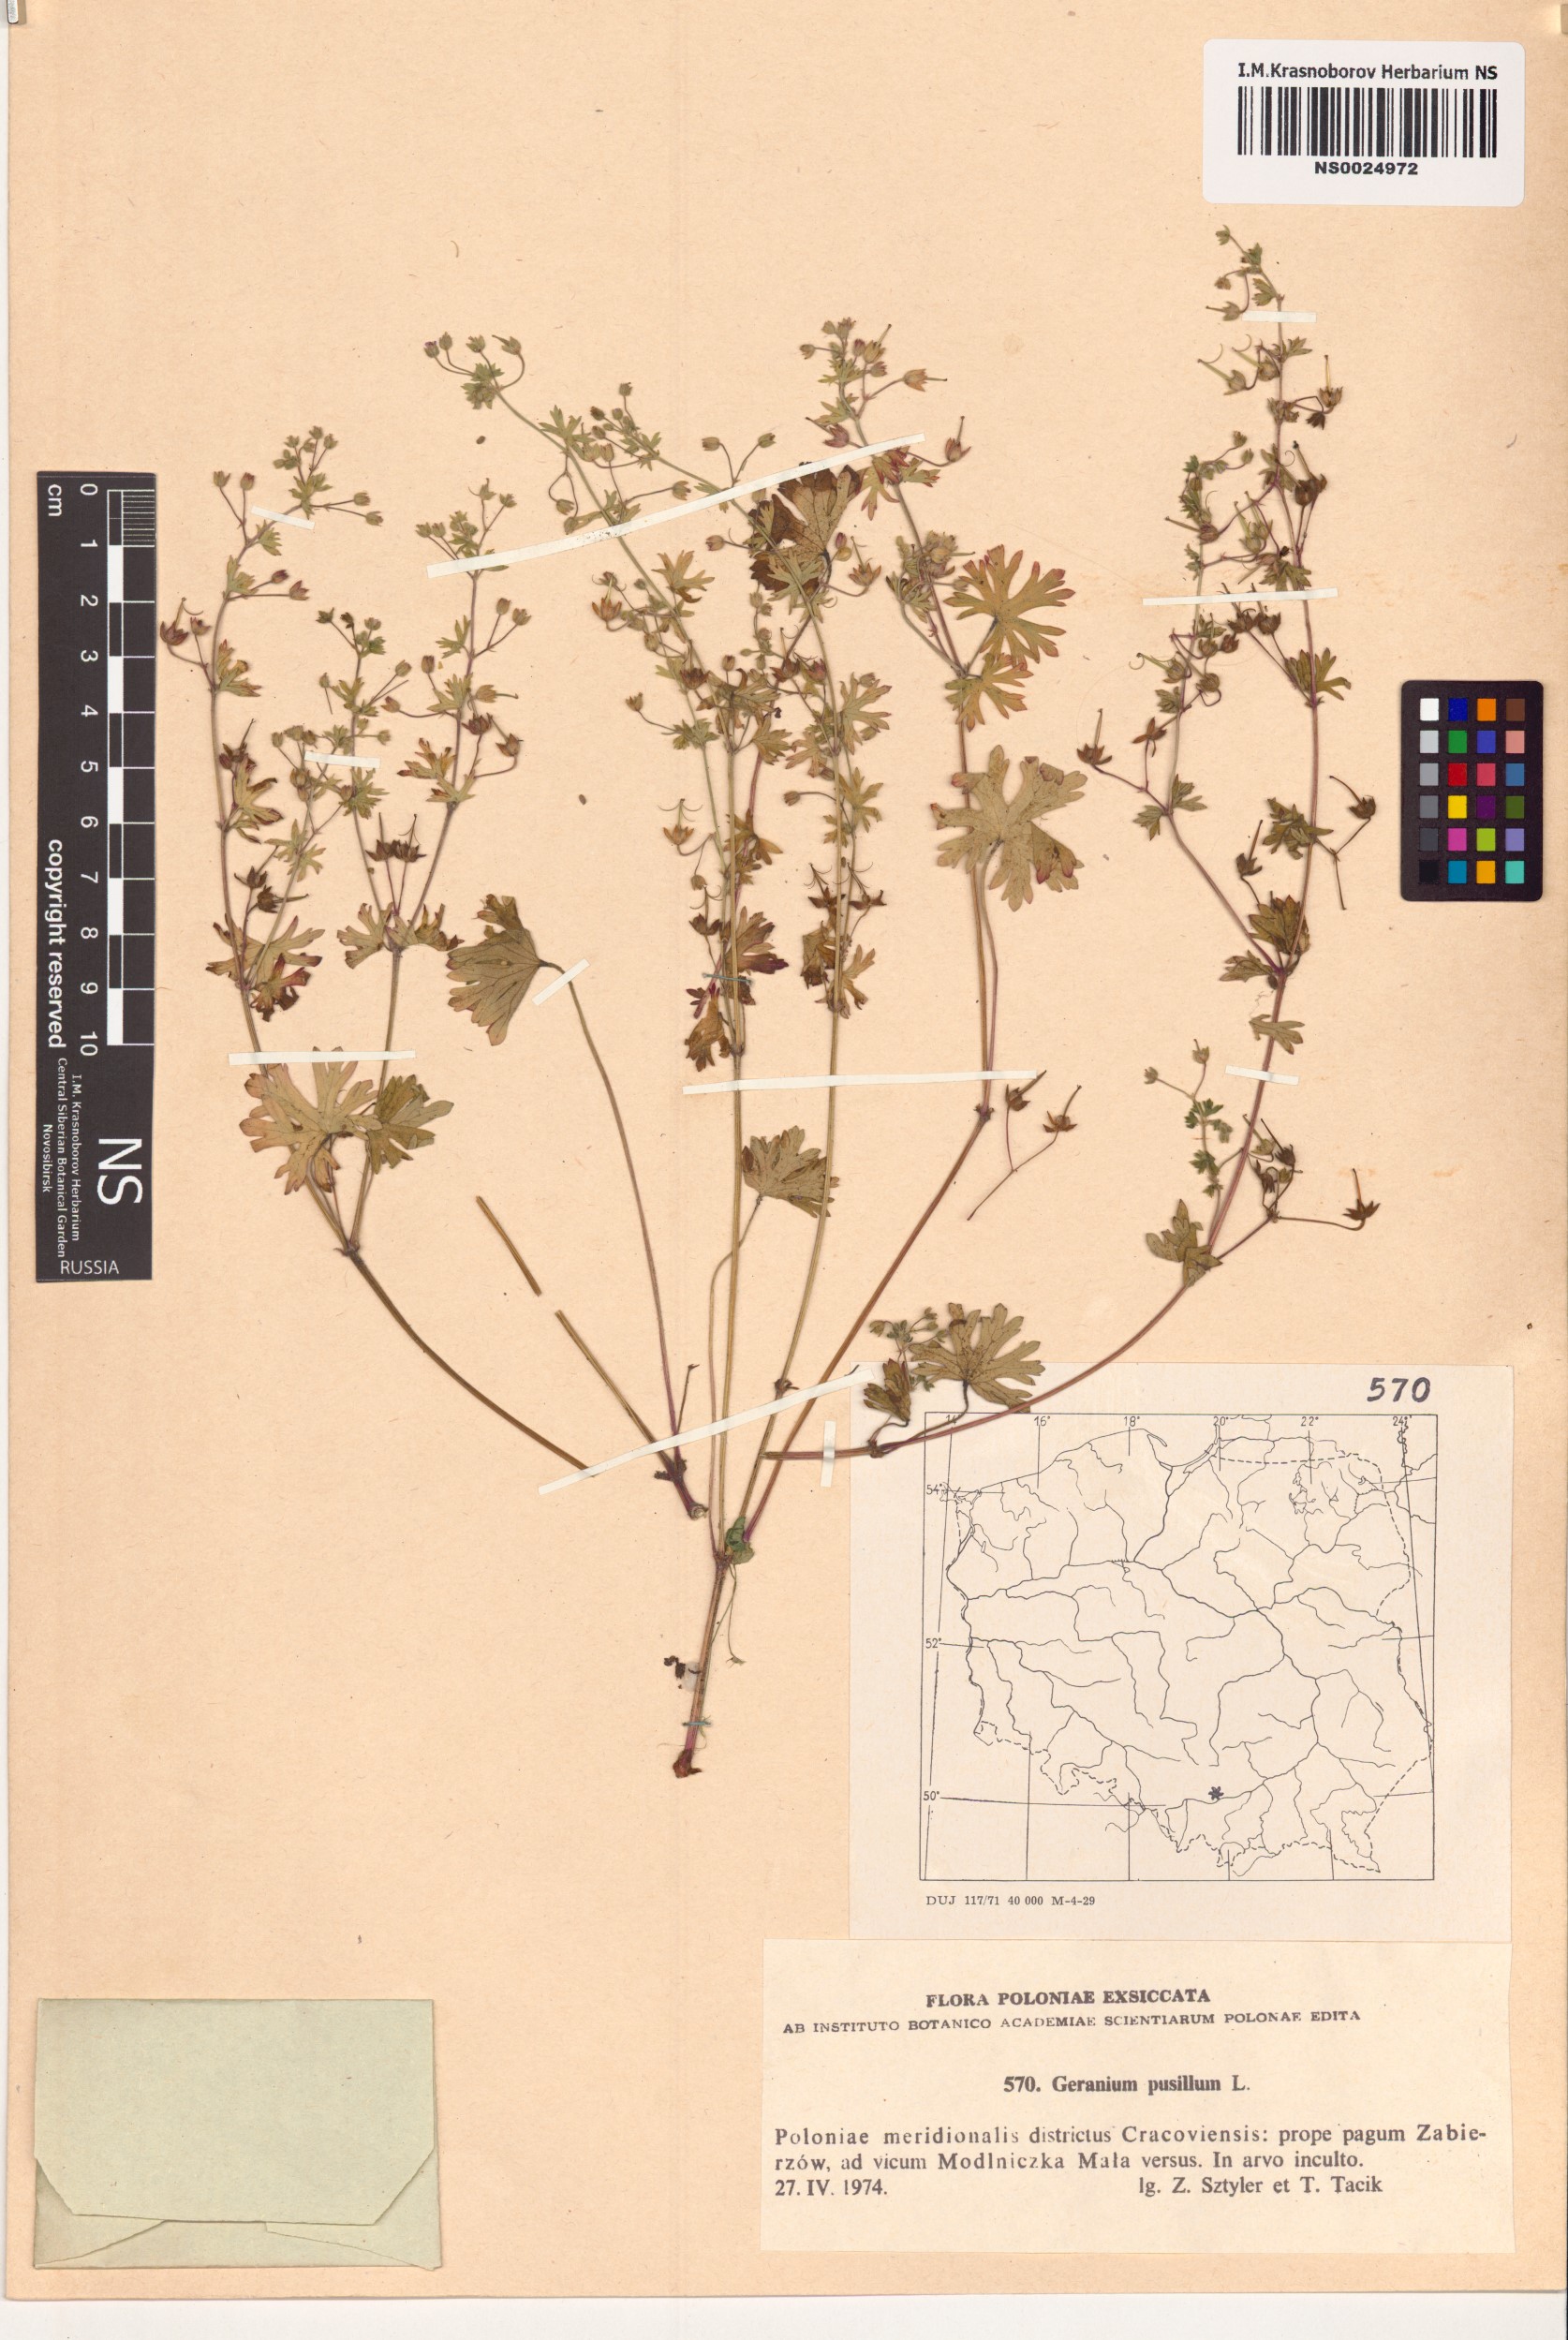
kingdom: Plantae
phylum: Tracheophyta
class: Magnoliopsida
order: Geraniales
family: Geraniaceae
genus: Geranium
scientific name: Geranium pusillum
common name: Small geranium
